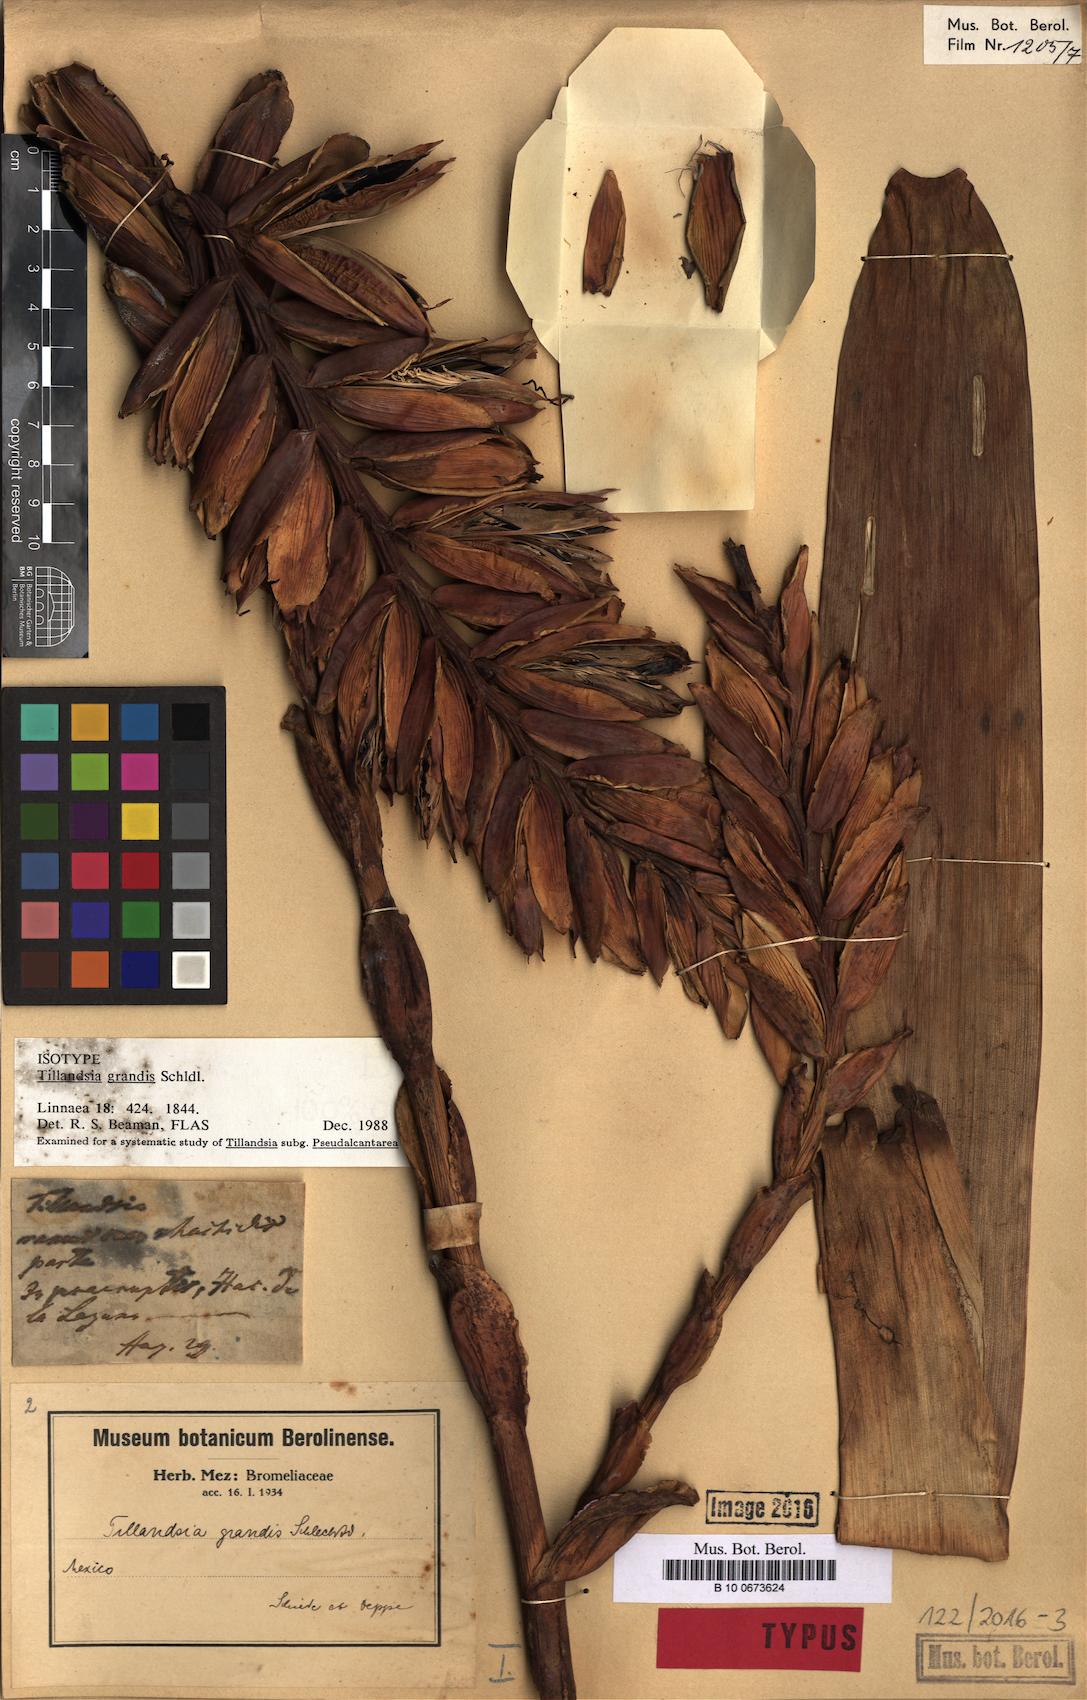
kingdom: Plantae
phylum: Tracheophyta
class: Liliopsida
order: Poales
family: Bromeliaceae
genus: Pseudalcantarea
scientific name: Pseudalcantarea grandis
